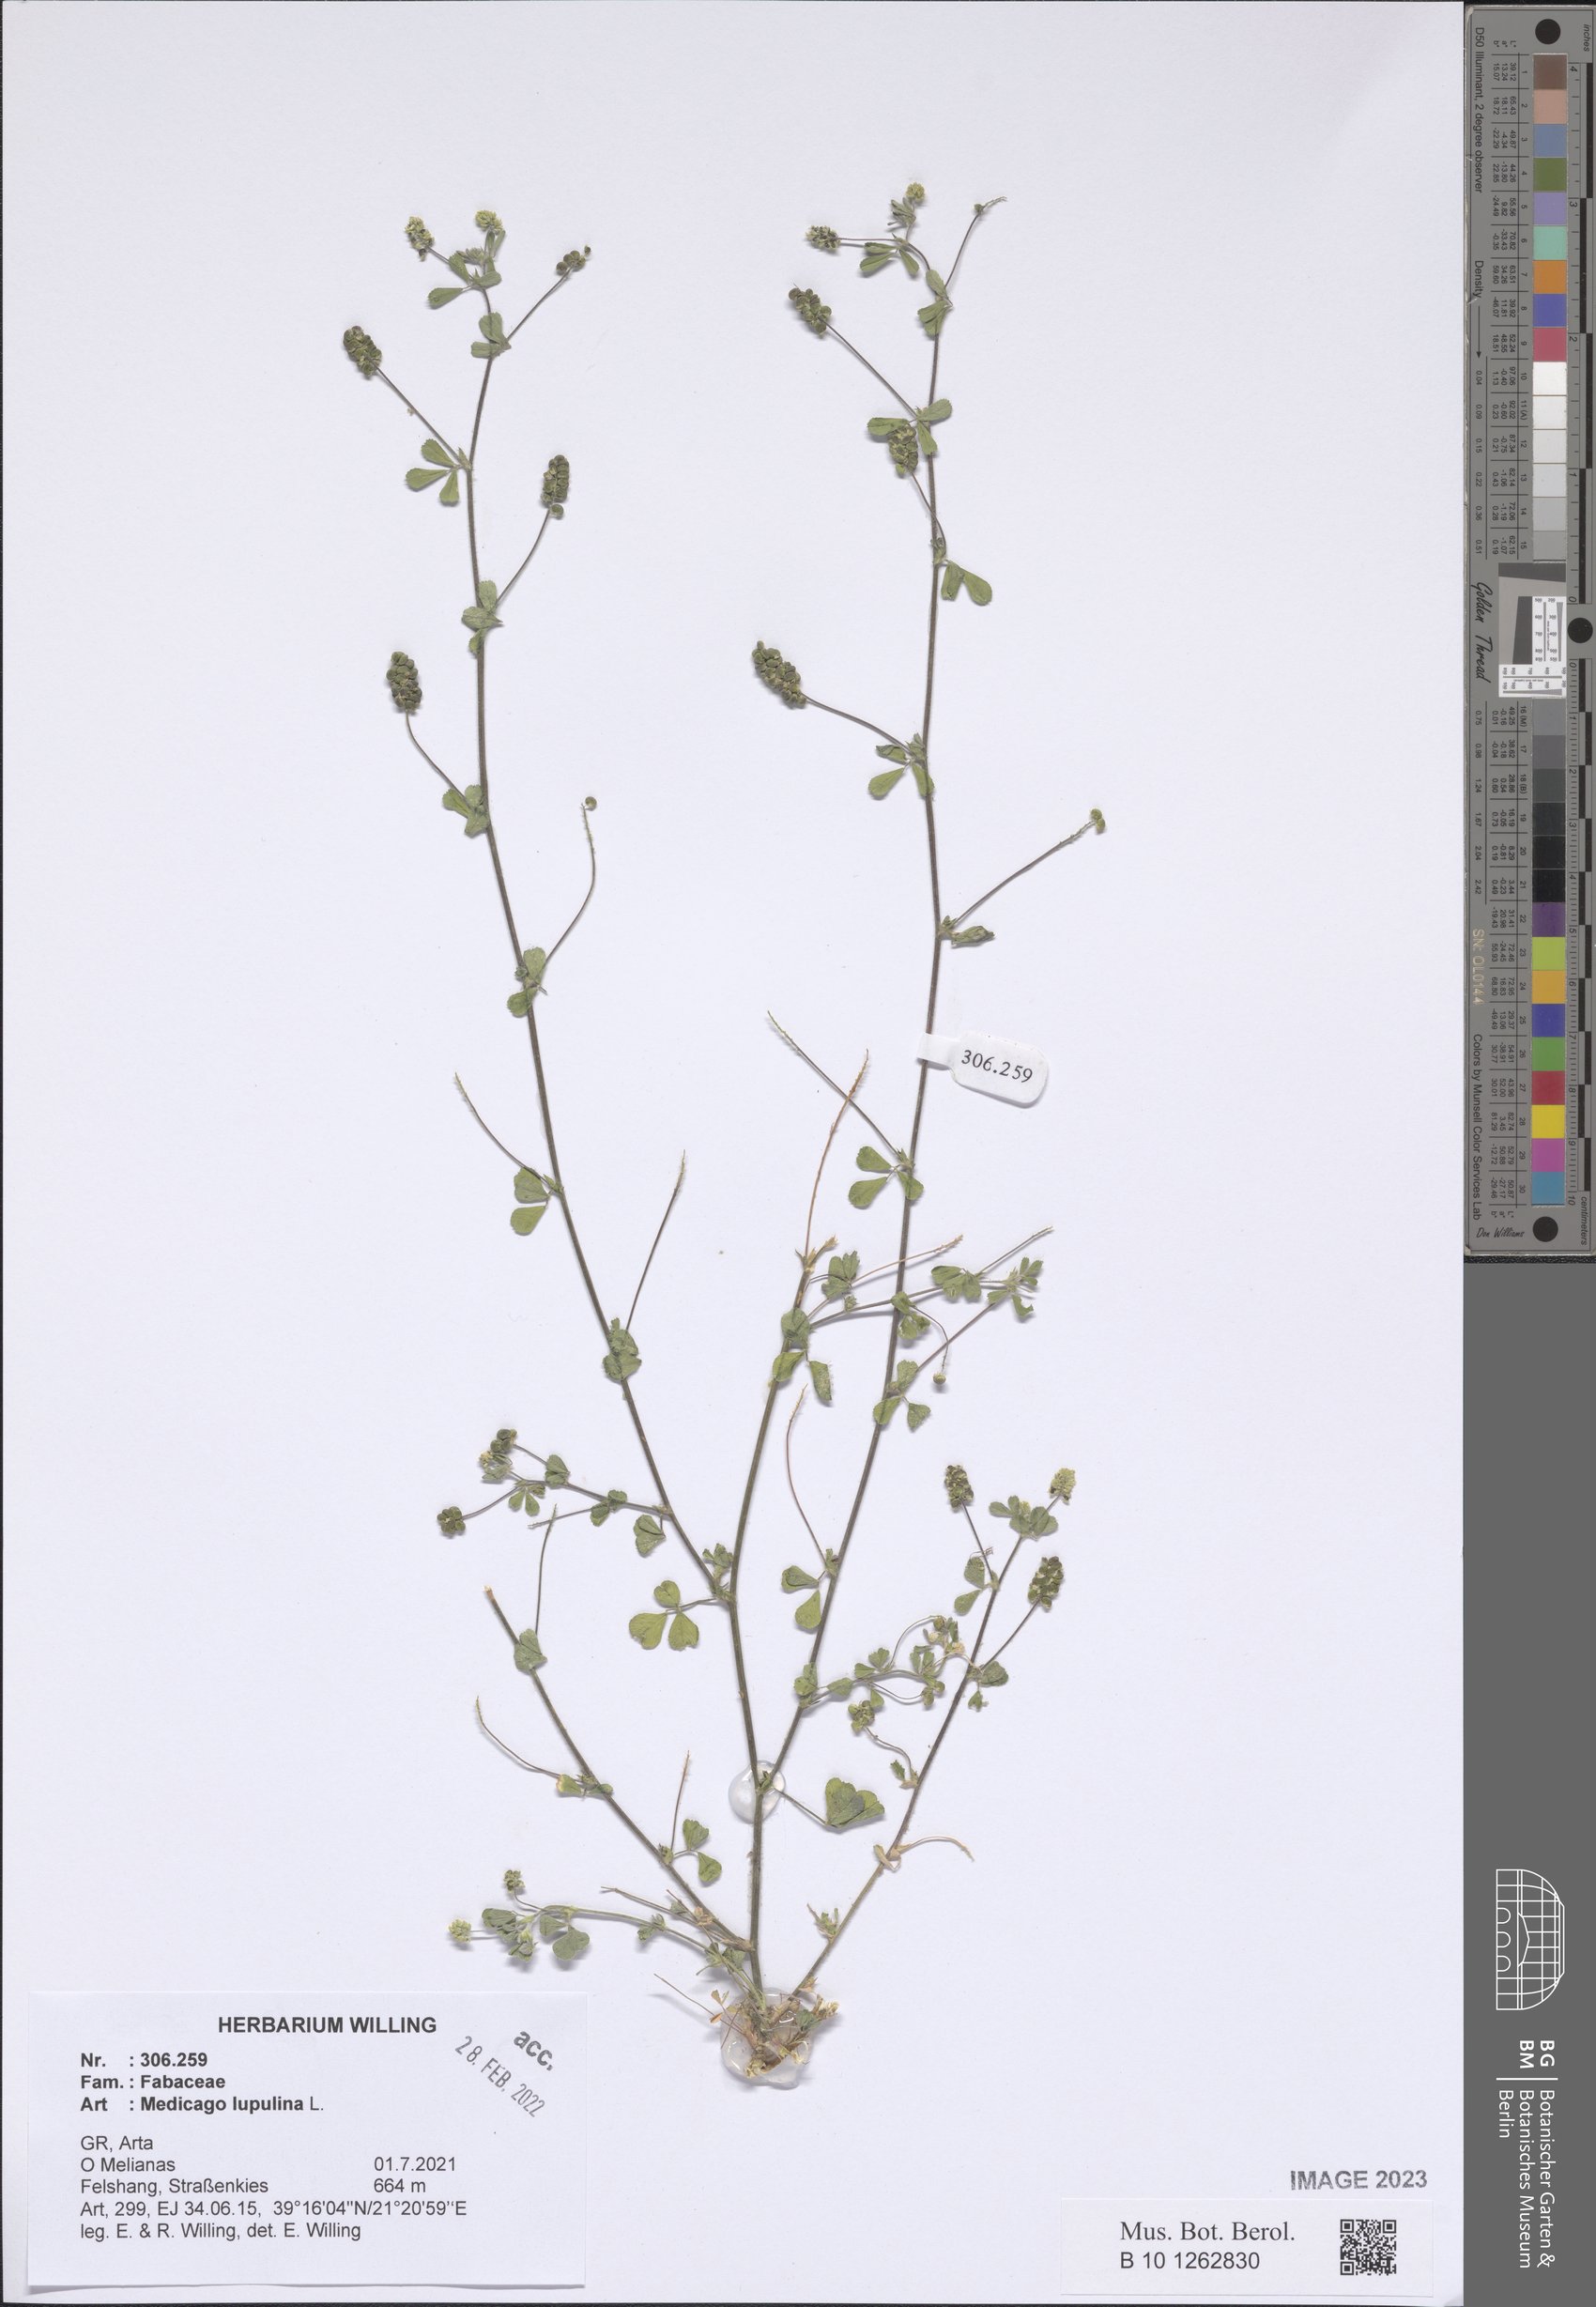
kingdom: Plantae
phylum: Tracheophyta
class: Magnoliopsida
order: Fabales
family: Fabaceae
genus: Medicago
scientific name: Medicago lupulina
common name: Black medick
